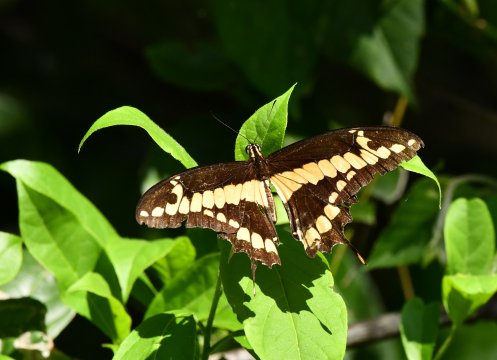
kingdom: Animalia
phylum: Arthropoda
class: Insecta
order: Lepidoptera
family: Papilionidae
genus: Papilio
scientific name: Papilio thoas
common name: Thoas Swallowtail
